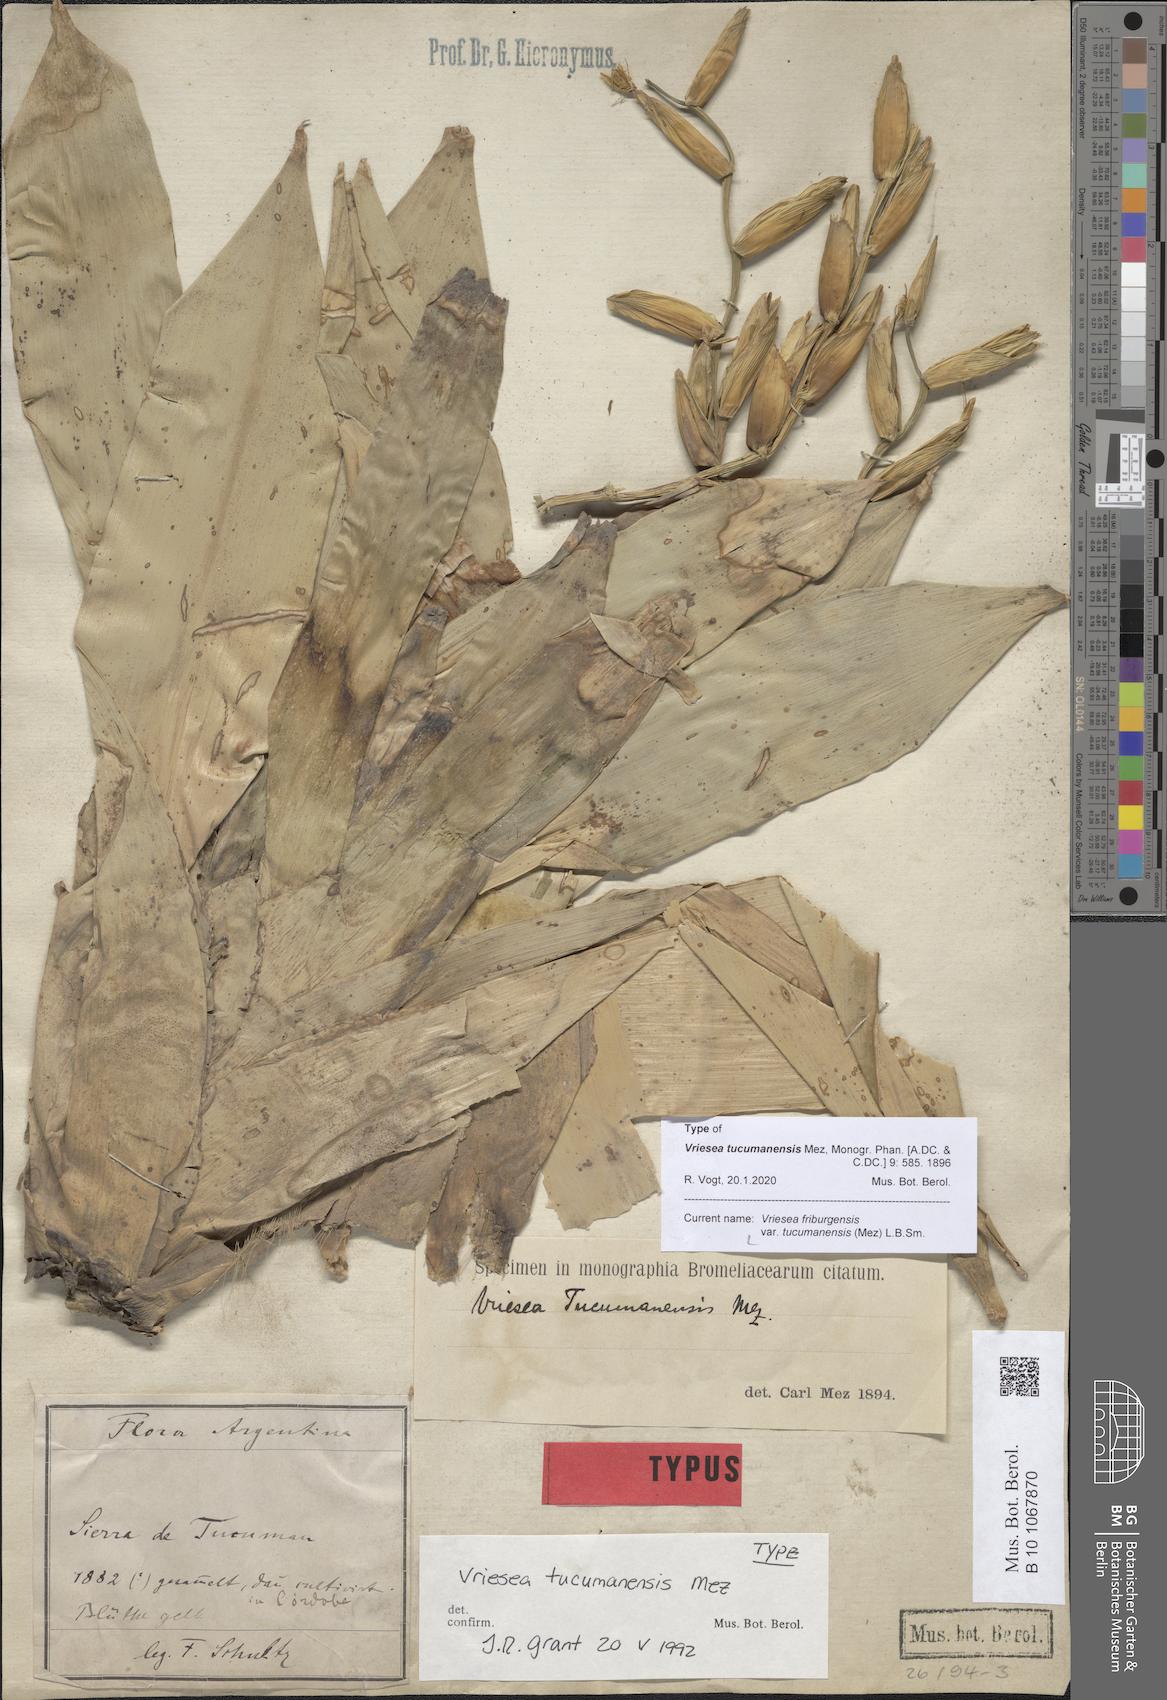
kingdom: Plantae
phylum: Tracheophyta
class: Liliopsida
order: Poales
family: Bromeliaceae
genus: Vriesea
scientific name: Vriesea friburgensis
